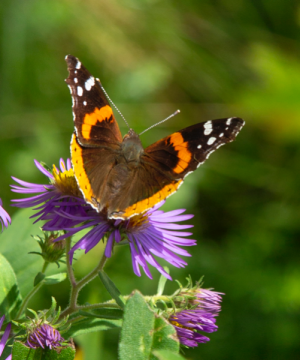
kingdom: Animalia
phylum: Arthropoda
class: Insecta
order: Lepidoptera
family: Nymphalidae
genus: Vanessa
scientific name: Vanessa atalanta
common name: Red Admiral
